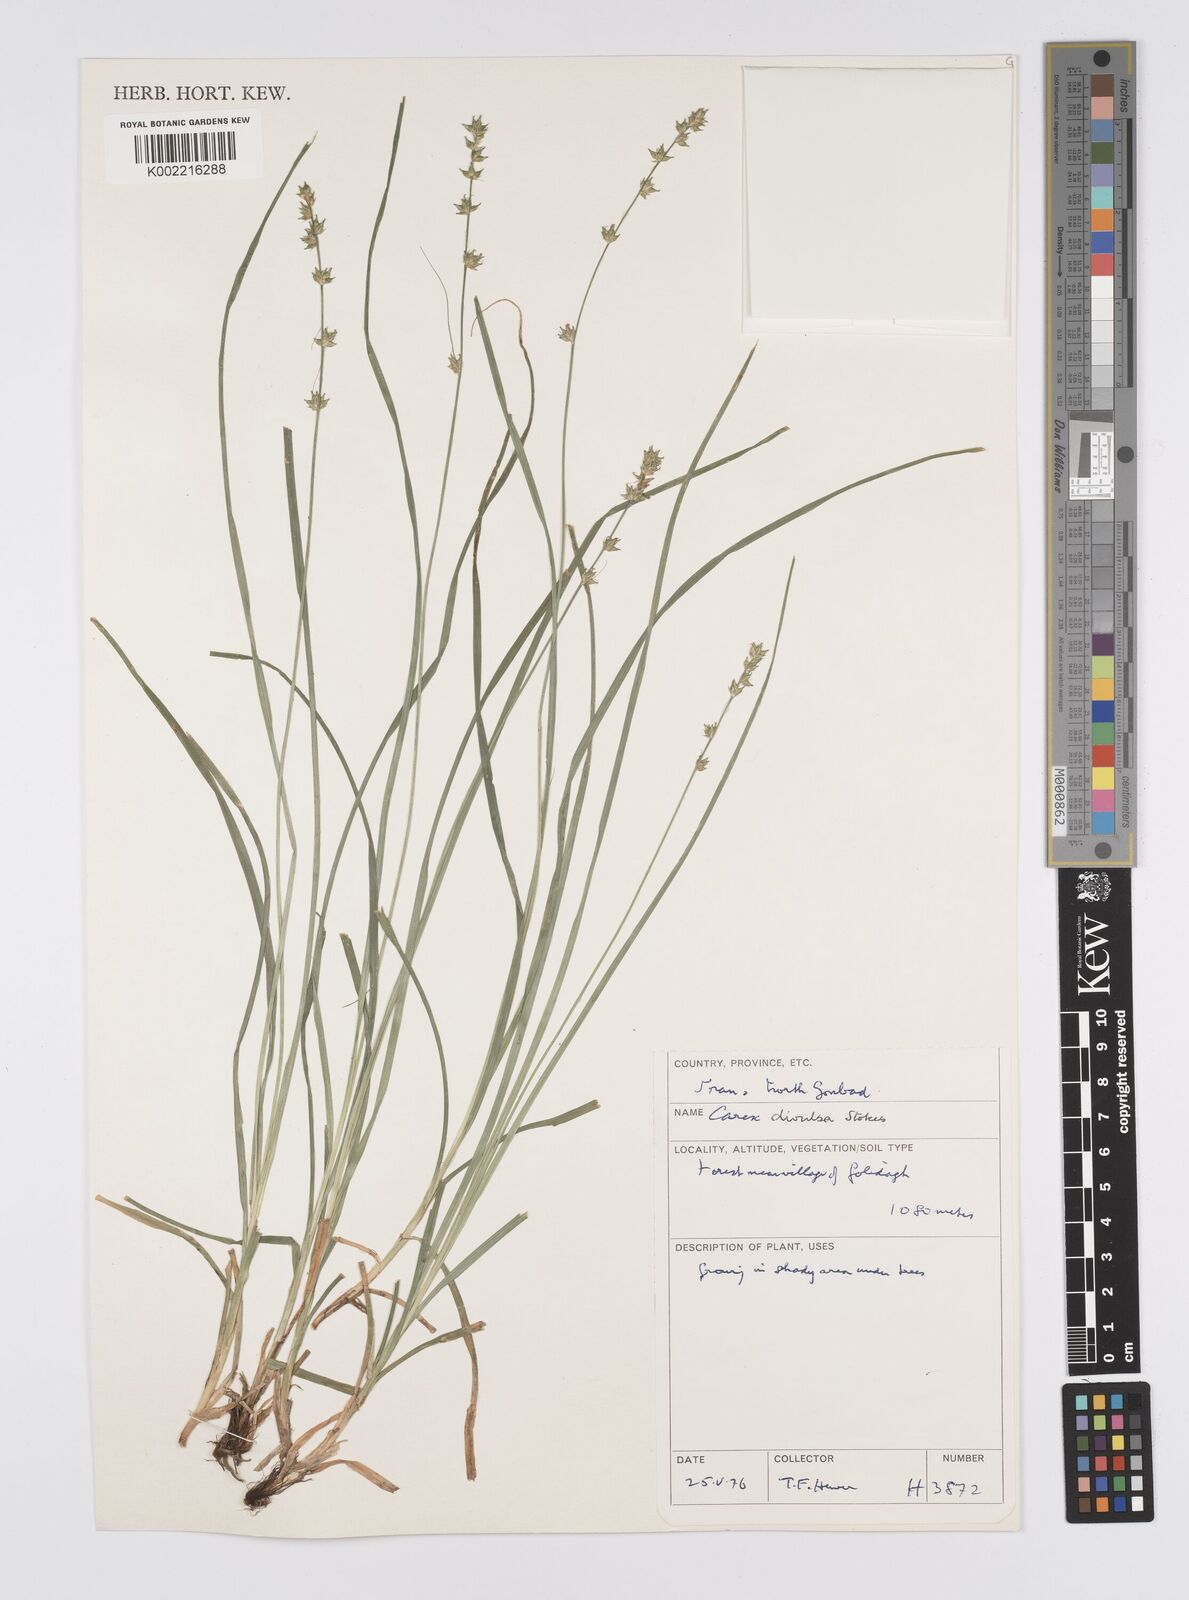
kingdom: Plantae
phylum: Tracheophyta
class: Liliopsida
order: Poales
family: Cyperaceae
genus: Carex
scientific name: Carex divulsa
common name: Grassland sedge
